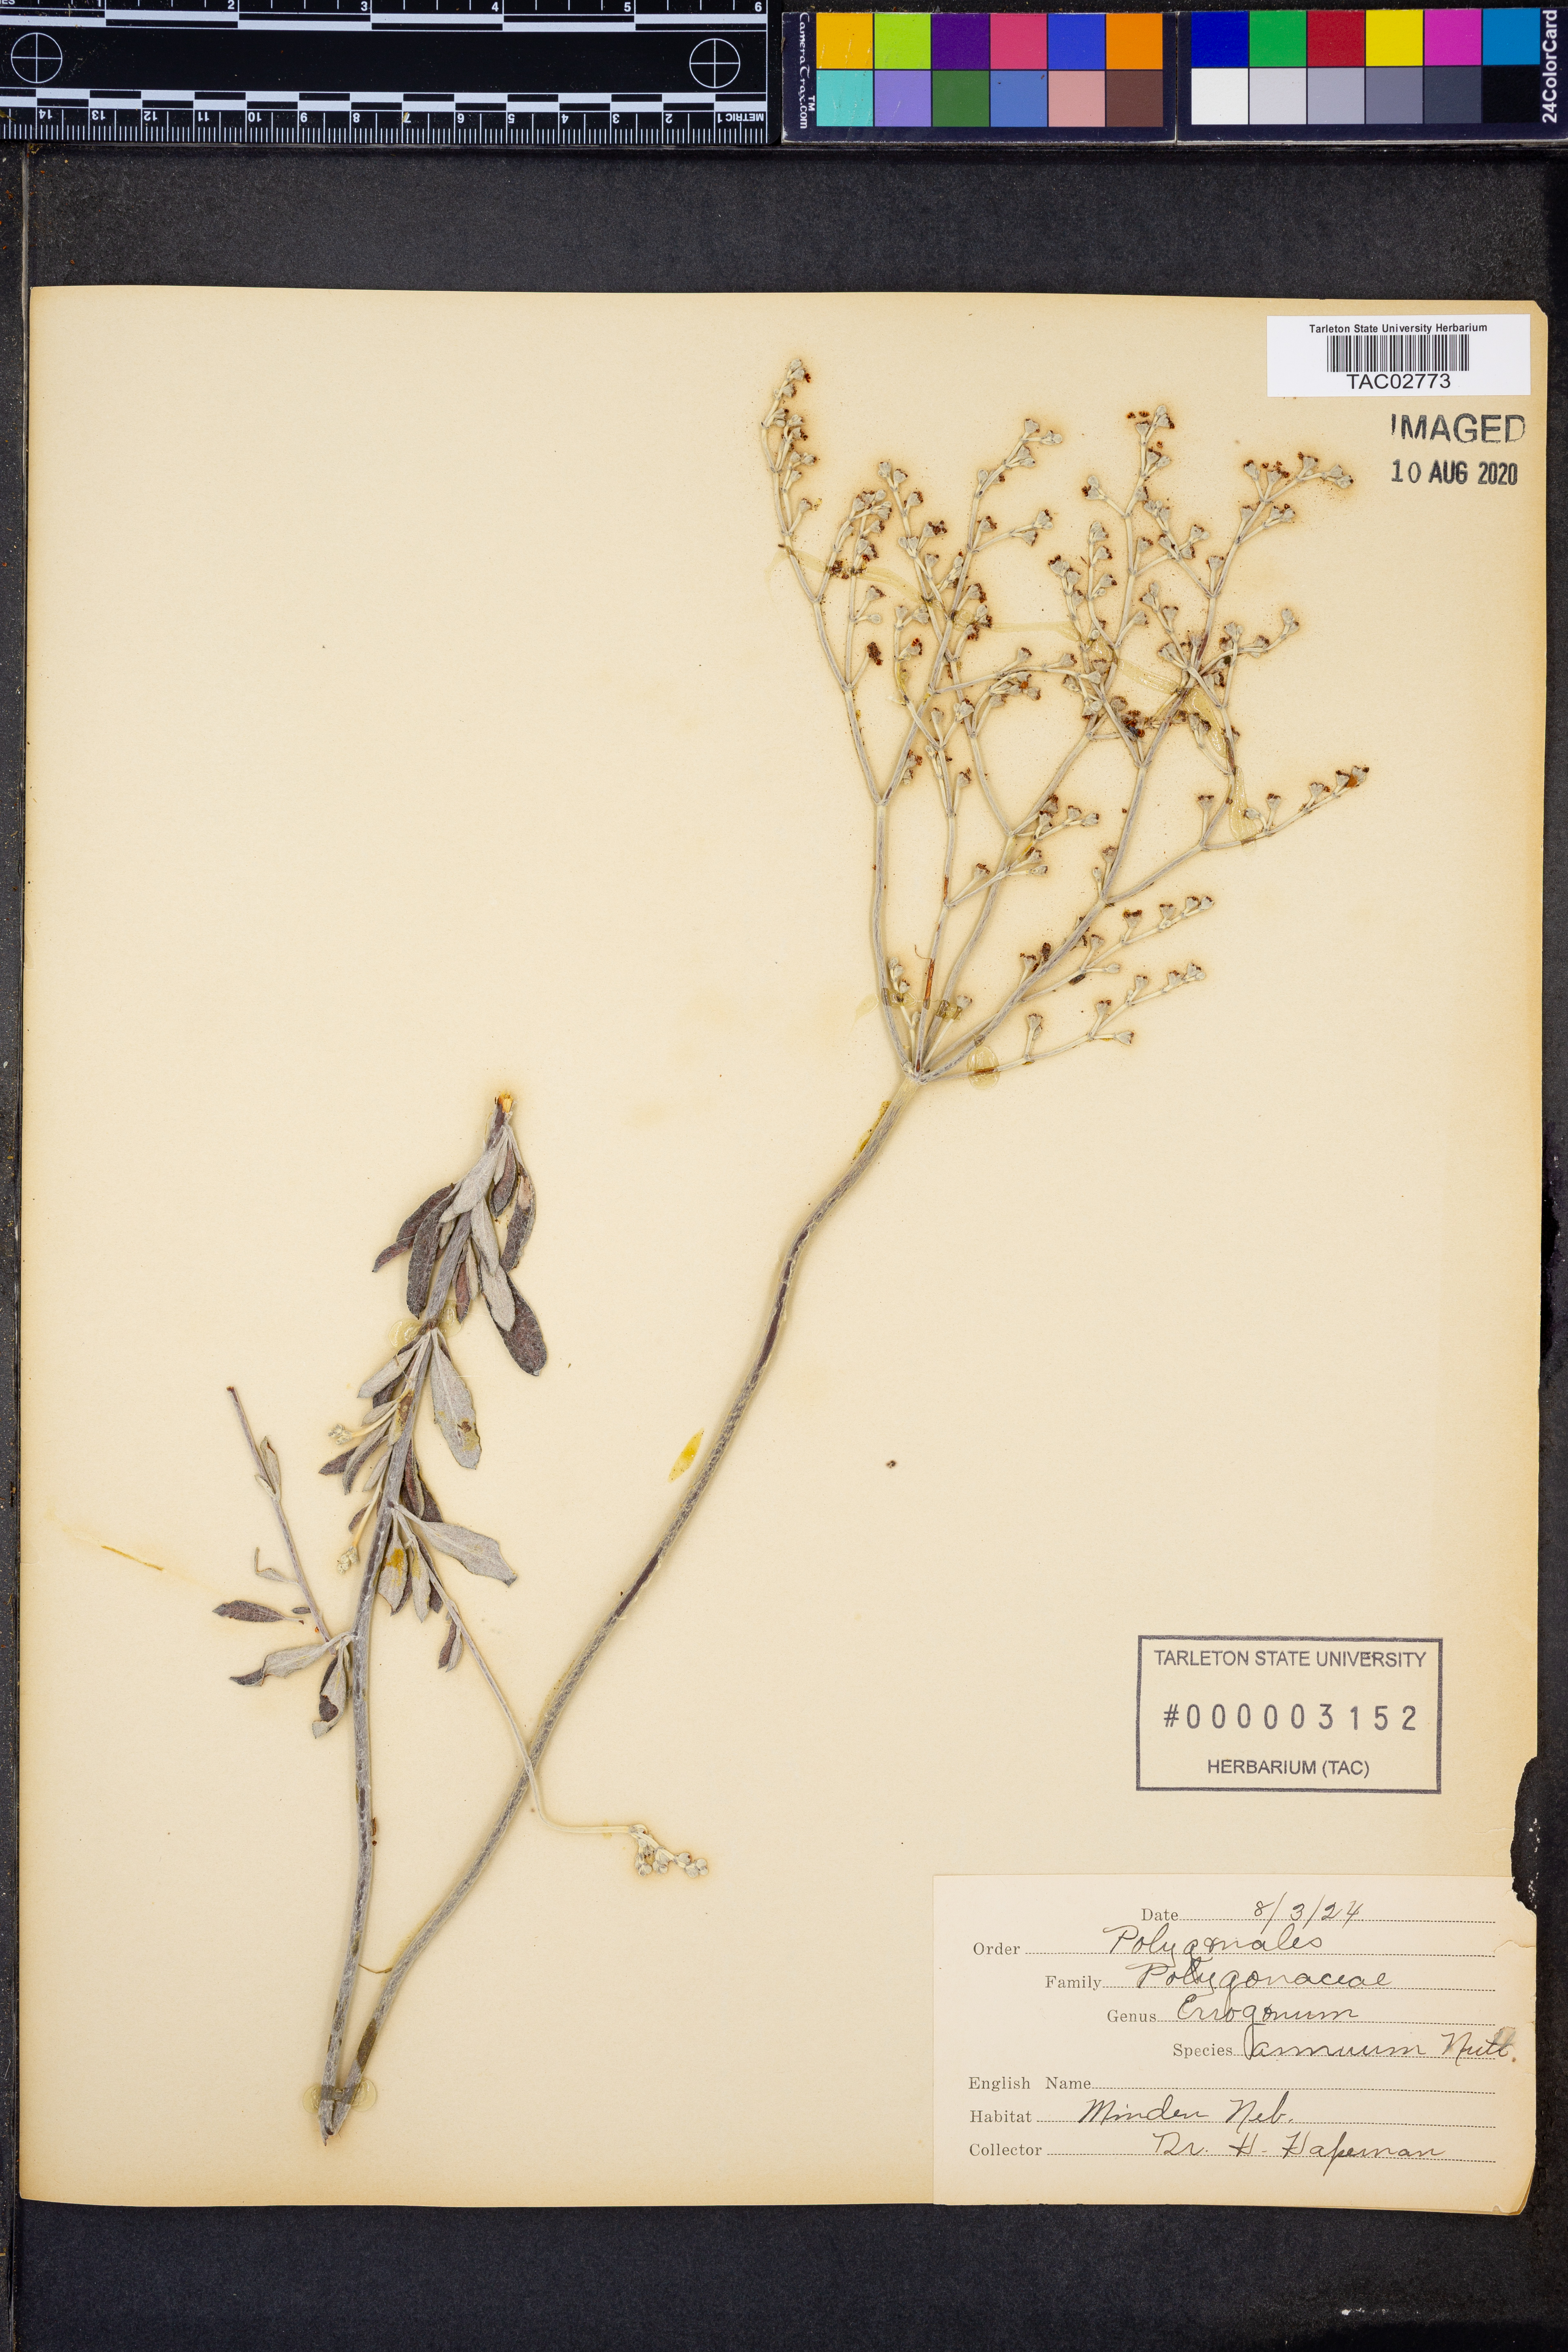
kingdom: Plantae
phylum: Tracheophyta
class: Magnoliopsida
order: Caryophyllales
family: Polygonaceae
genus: Eriogonum
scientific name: Eriogonum annuum
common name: Annual wild buckwheat
